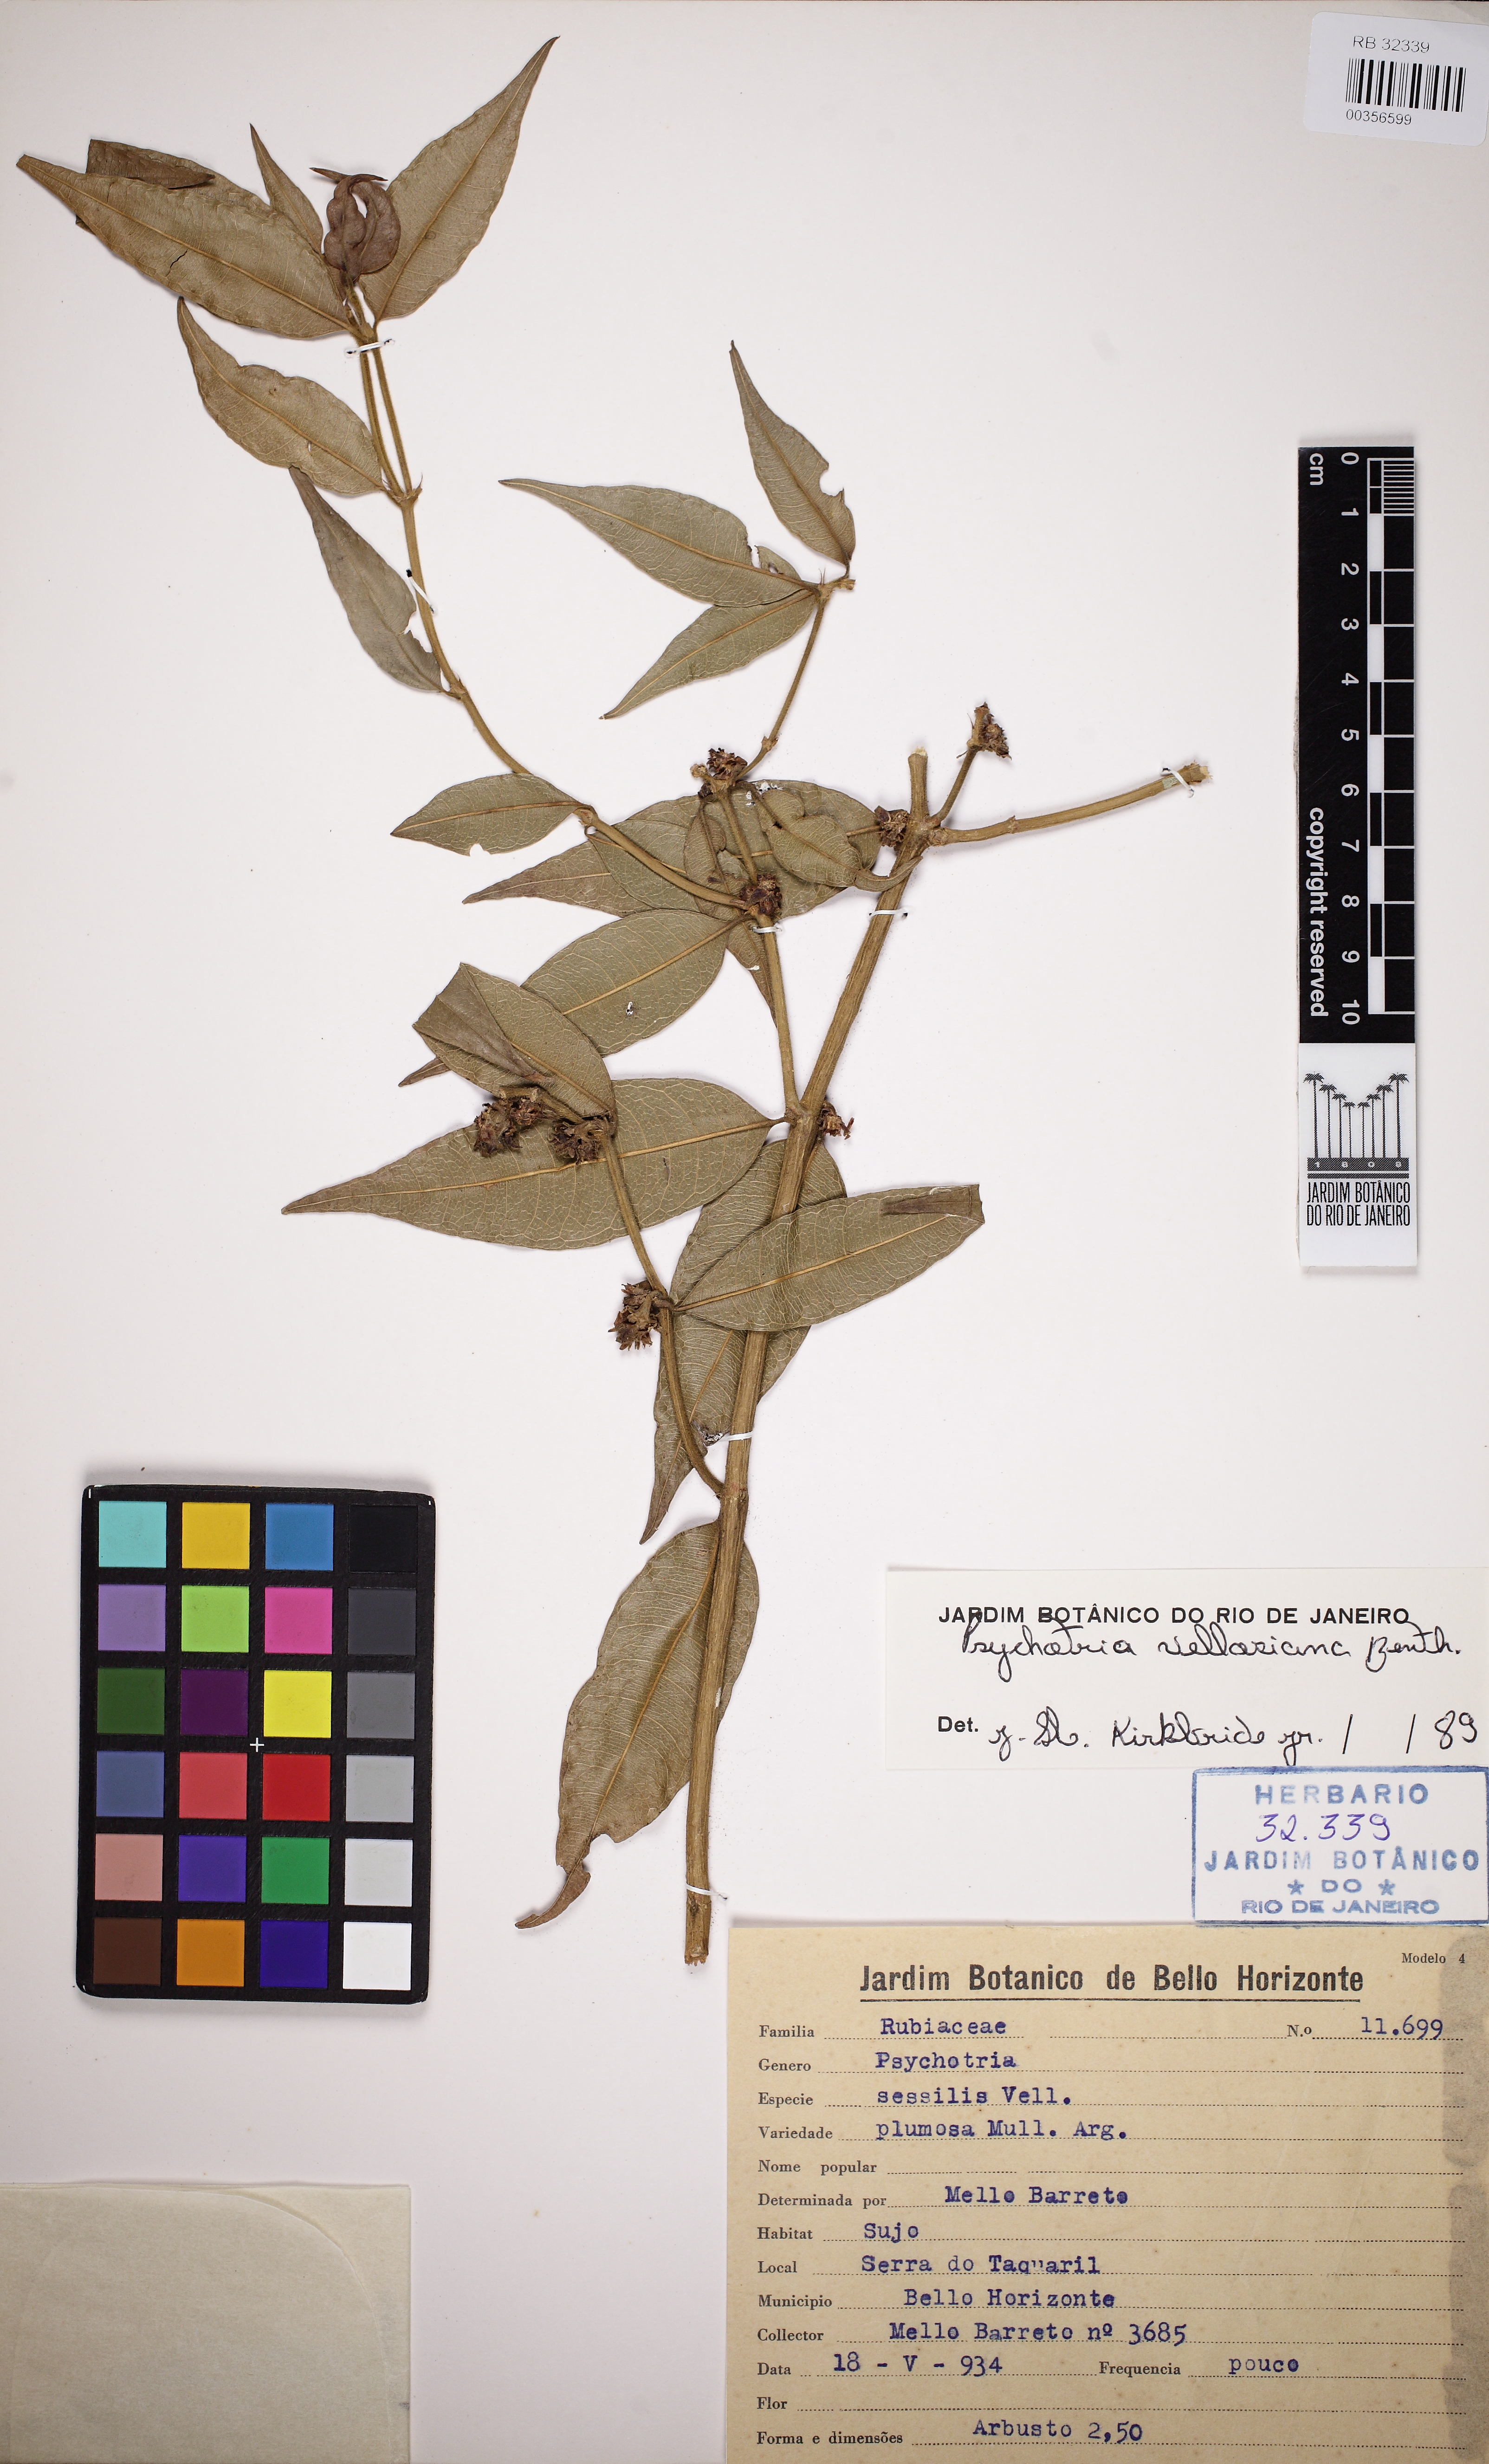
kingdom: Plantae
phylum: Tracheophyta
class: Magnoliopsida
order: Gentianales
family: Rubiaceae
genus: Palicourea
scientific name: Palicourea sessilis
